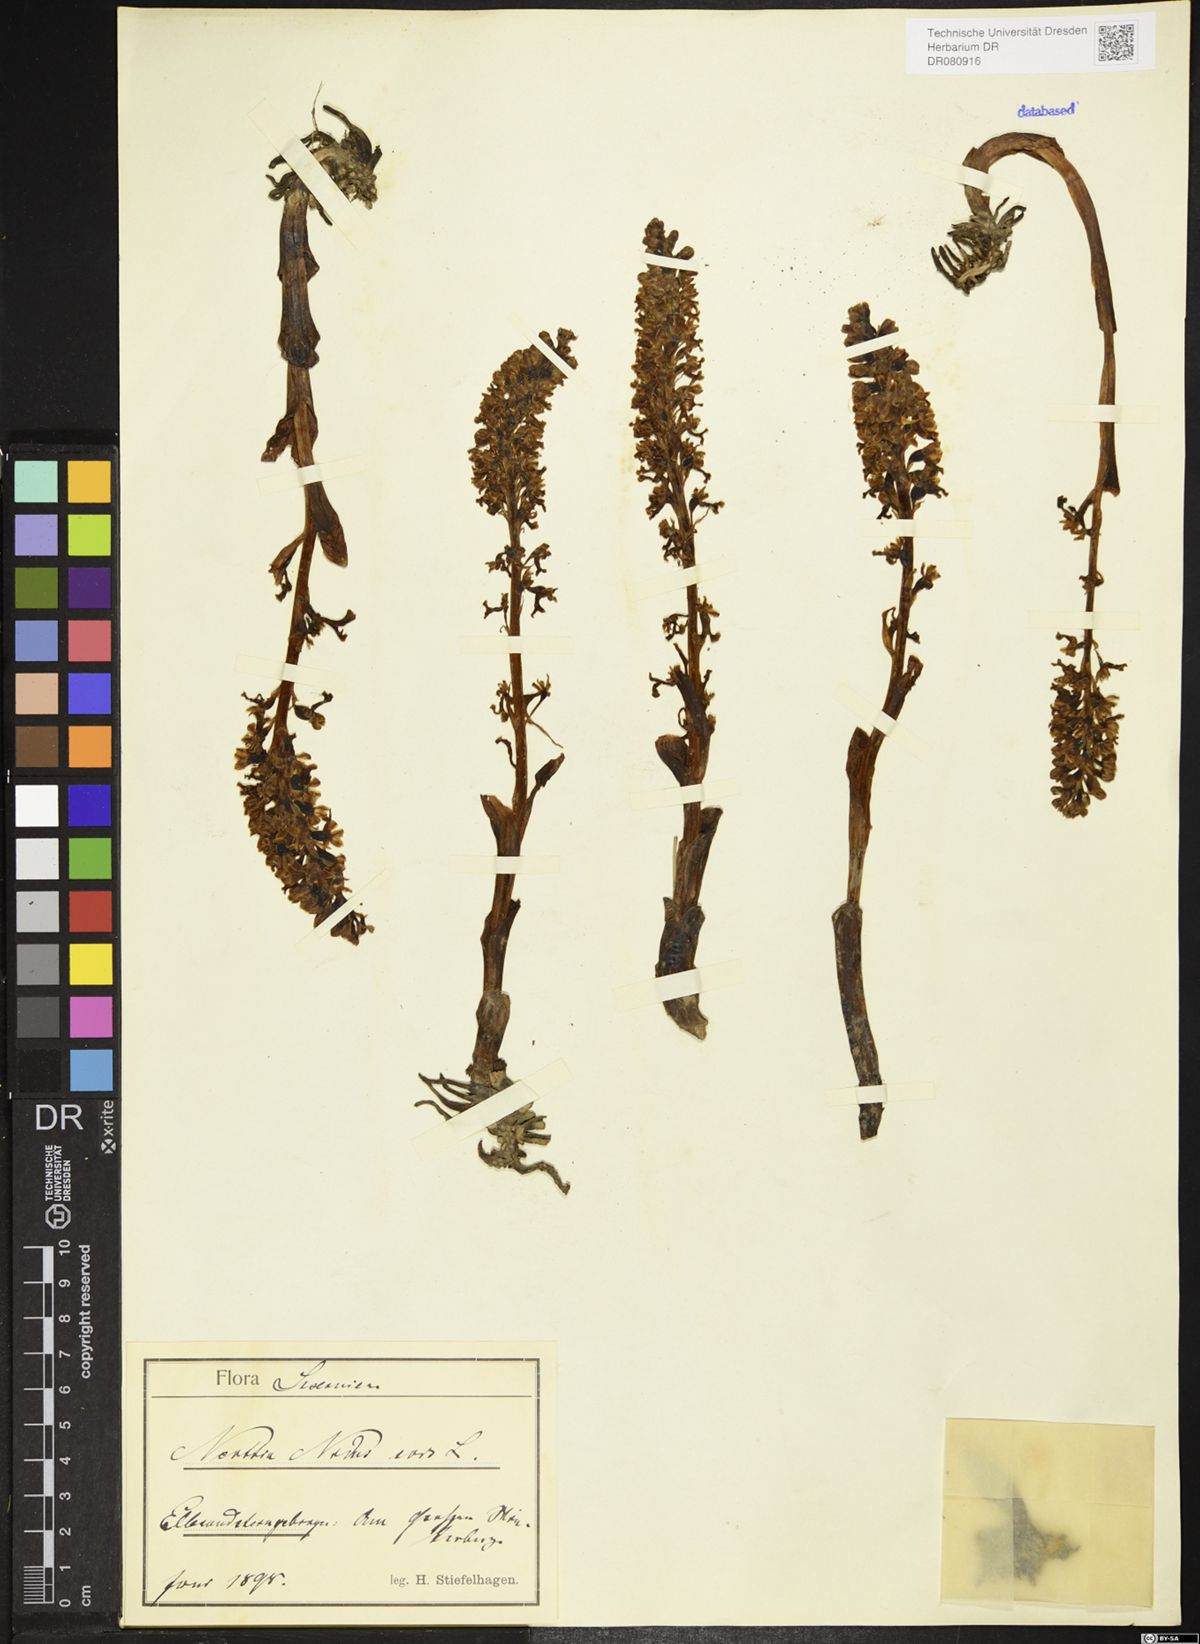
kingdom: Plantae
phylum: Tracheophyta
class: Liliopsida
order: Asparagales
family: Orchidaceae
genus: Neottia
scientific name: Neottia nidus-avis
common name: Bird's-nest orchid
